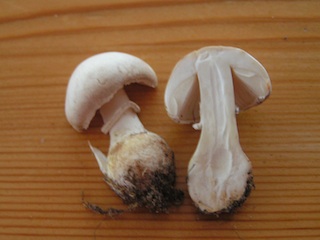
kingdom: Fungi
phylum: Basidiomycota
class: Agaricomycetes
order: Agaricales
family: Agaricaceae
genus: Leucoagaricus
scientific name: Leucoagaricus leucothites
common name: rosabladet silkehat
